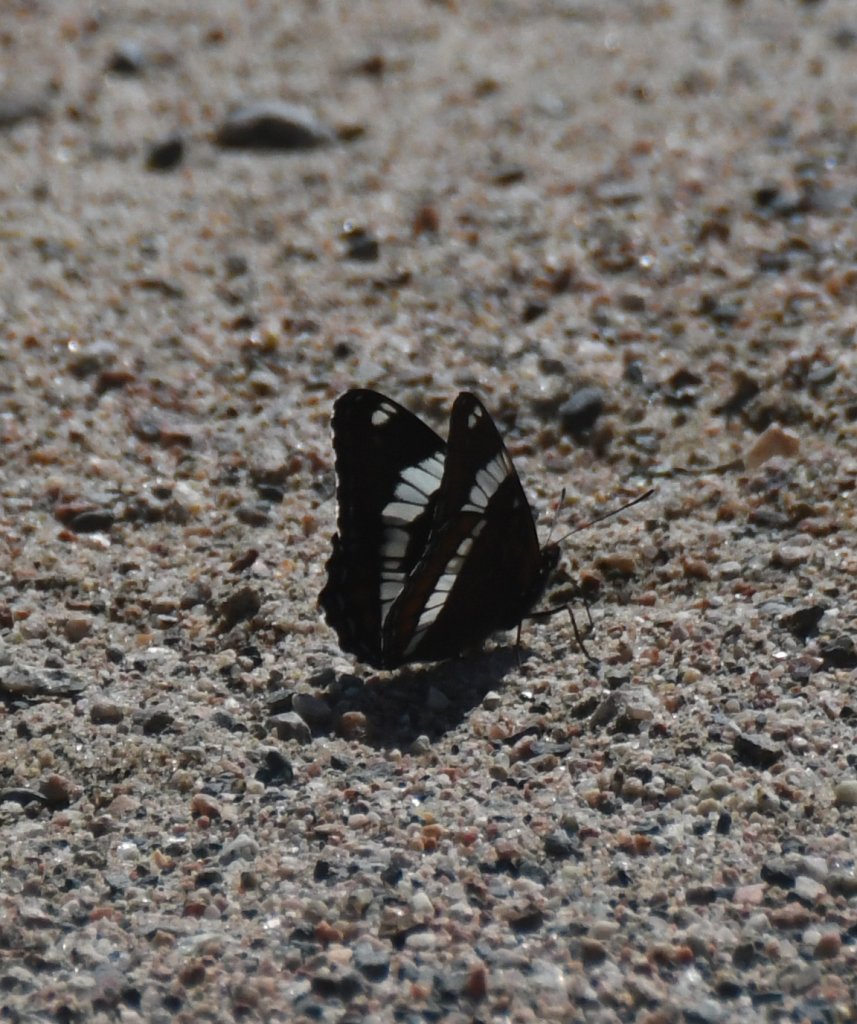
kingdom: Animalia
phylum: Arthropoda
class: Insecta
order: Lepidoptera
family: Nymphalidae
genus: Limenitis
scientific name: Limenitis arthemis
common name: Red-spotted Admiral
